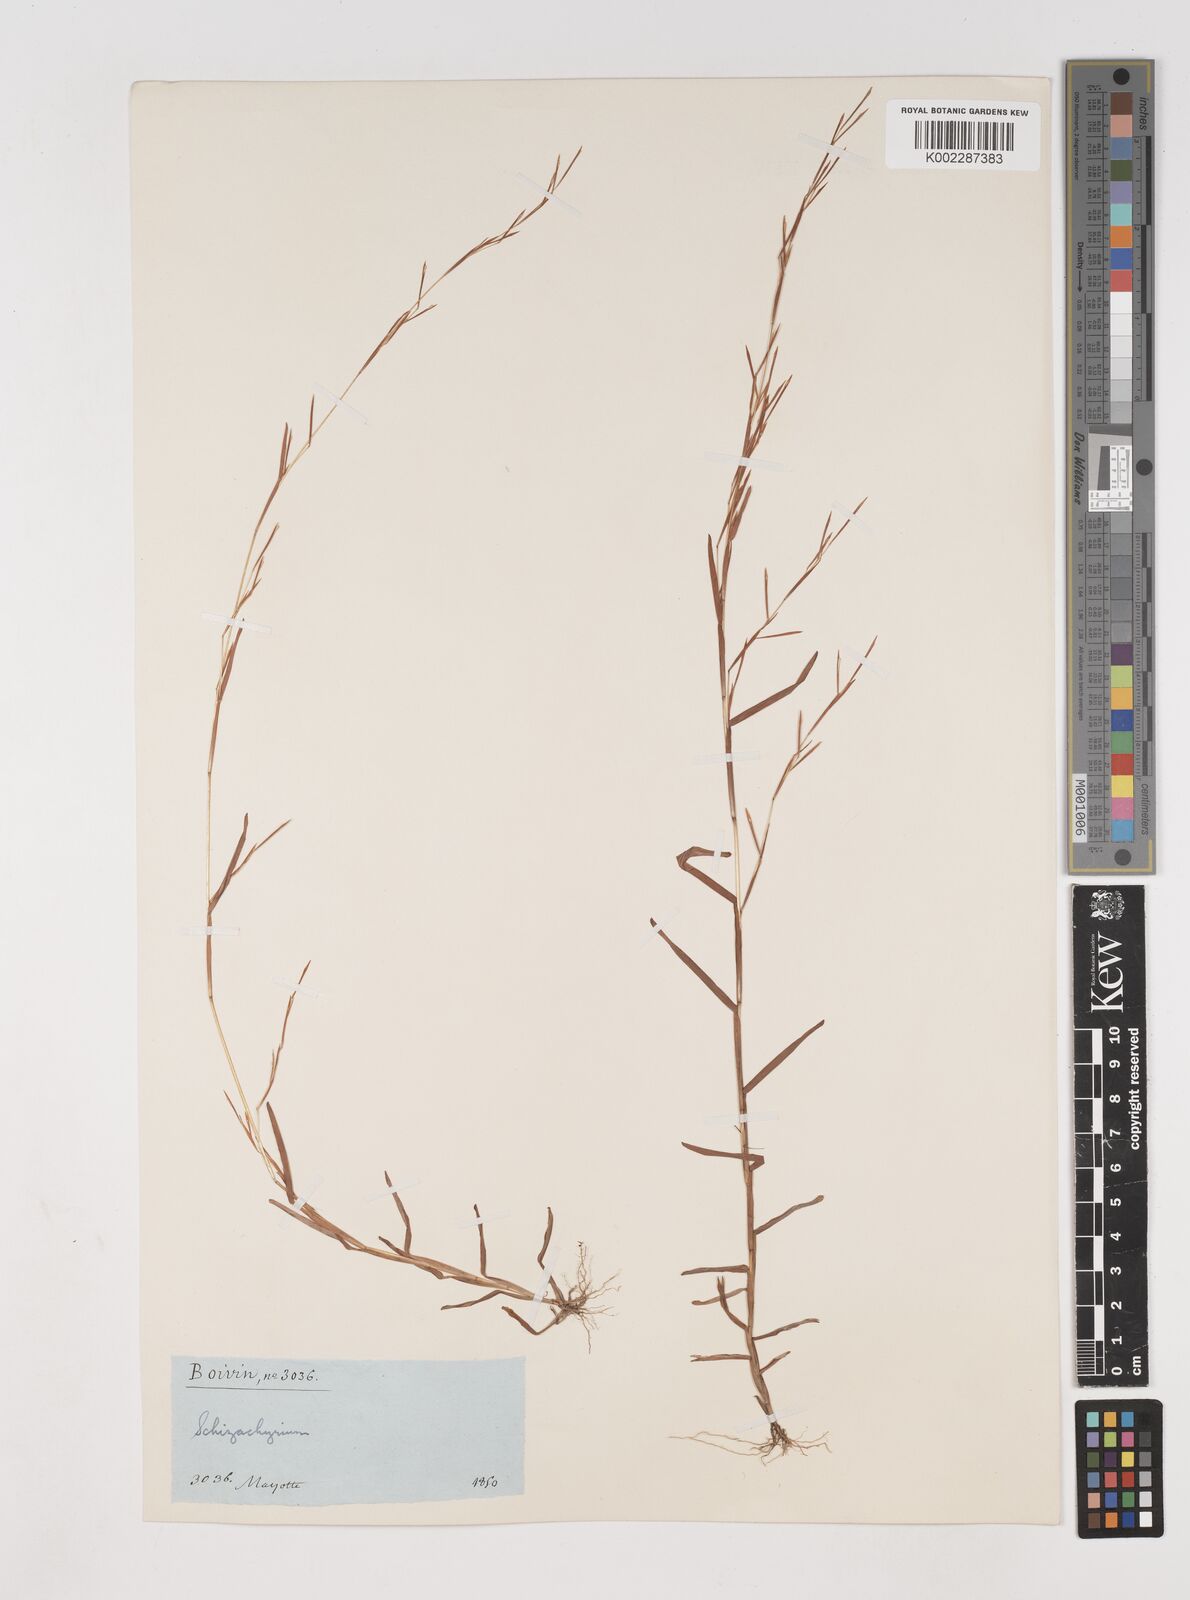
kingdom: Plantae
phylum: Tracheophyta
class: Liliopsida
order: Poales
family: Poaceae
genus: Schizachyrium
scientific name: Schizachyrium brevifolium
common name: Serillo dulce
